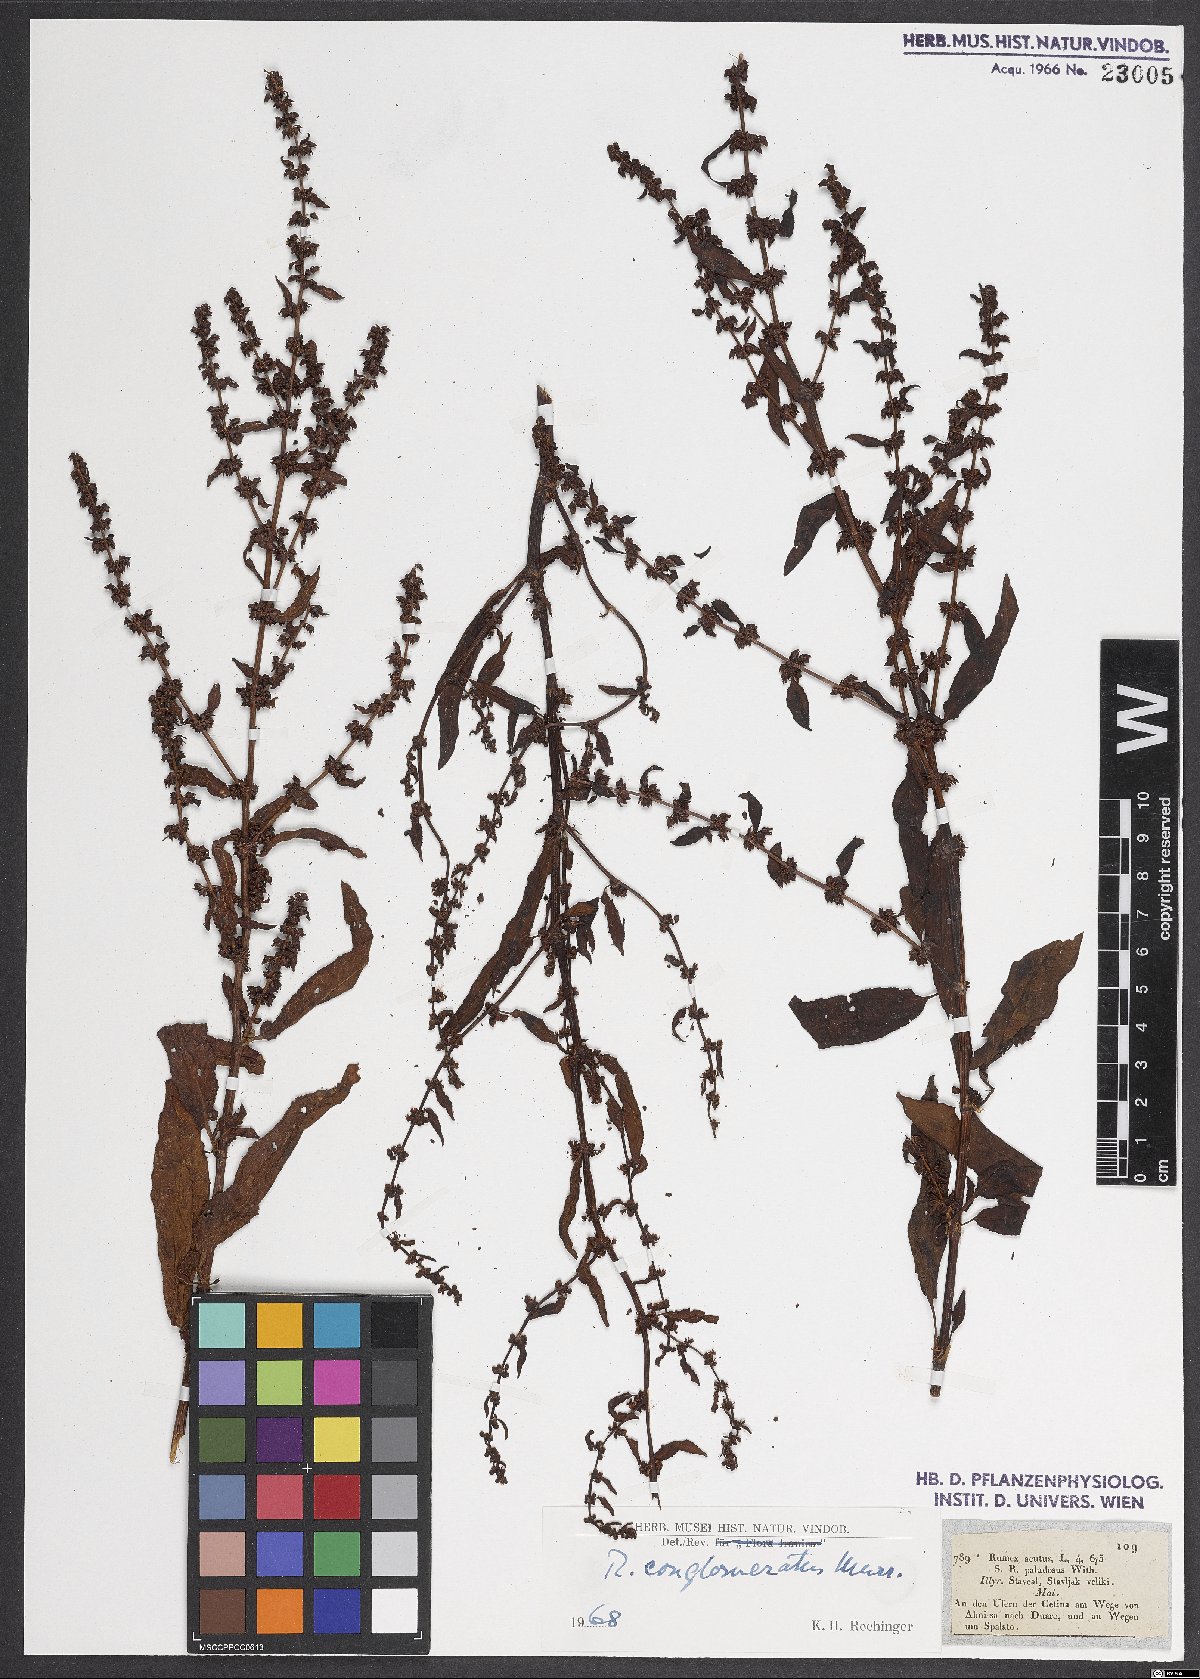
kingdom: Plantae
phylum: Tracheophyta
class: Magnoliopsida
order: Caryophyllales
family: Polygonaceae
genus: Rumex
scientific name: Rumex conglomeratus
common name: Clustered dock
